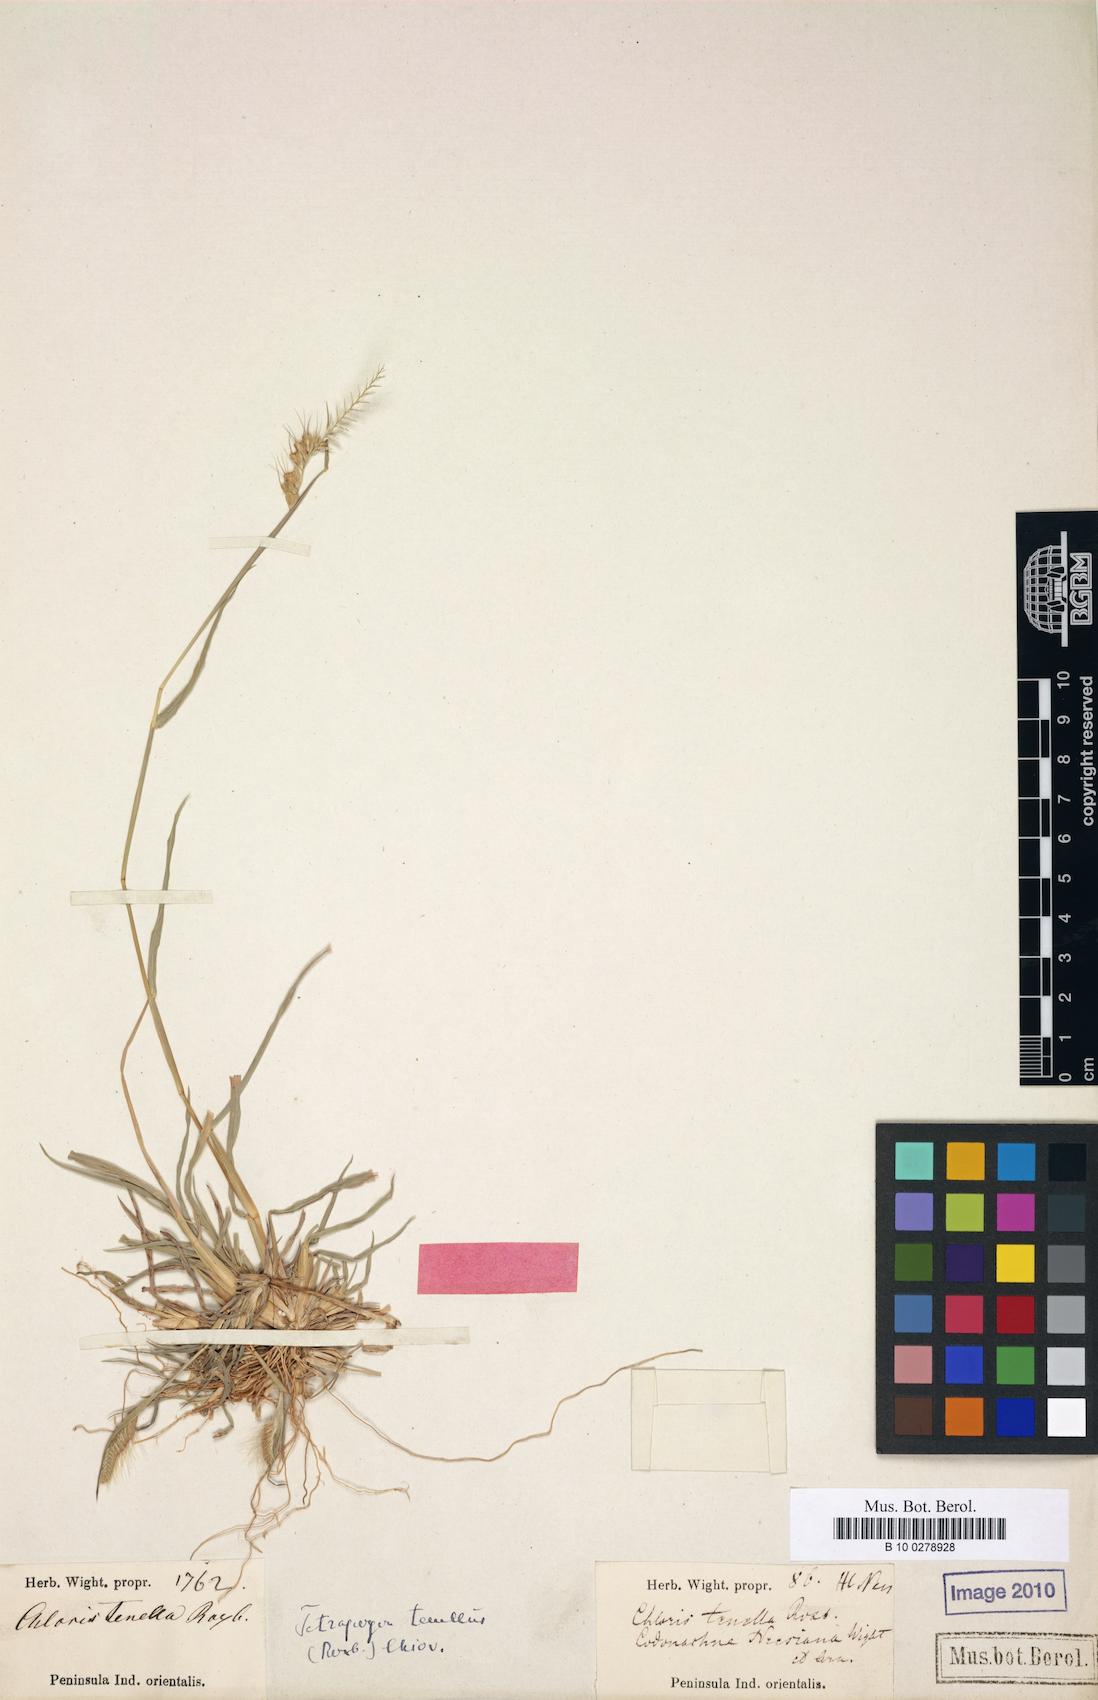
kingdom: Plantae
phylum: Tracheophyta
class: Liliopsida
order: Poales
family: Poaceae
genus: Tetrapogon
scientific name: Tetrapogon tenellus
